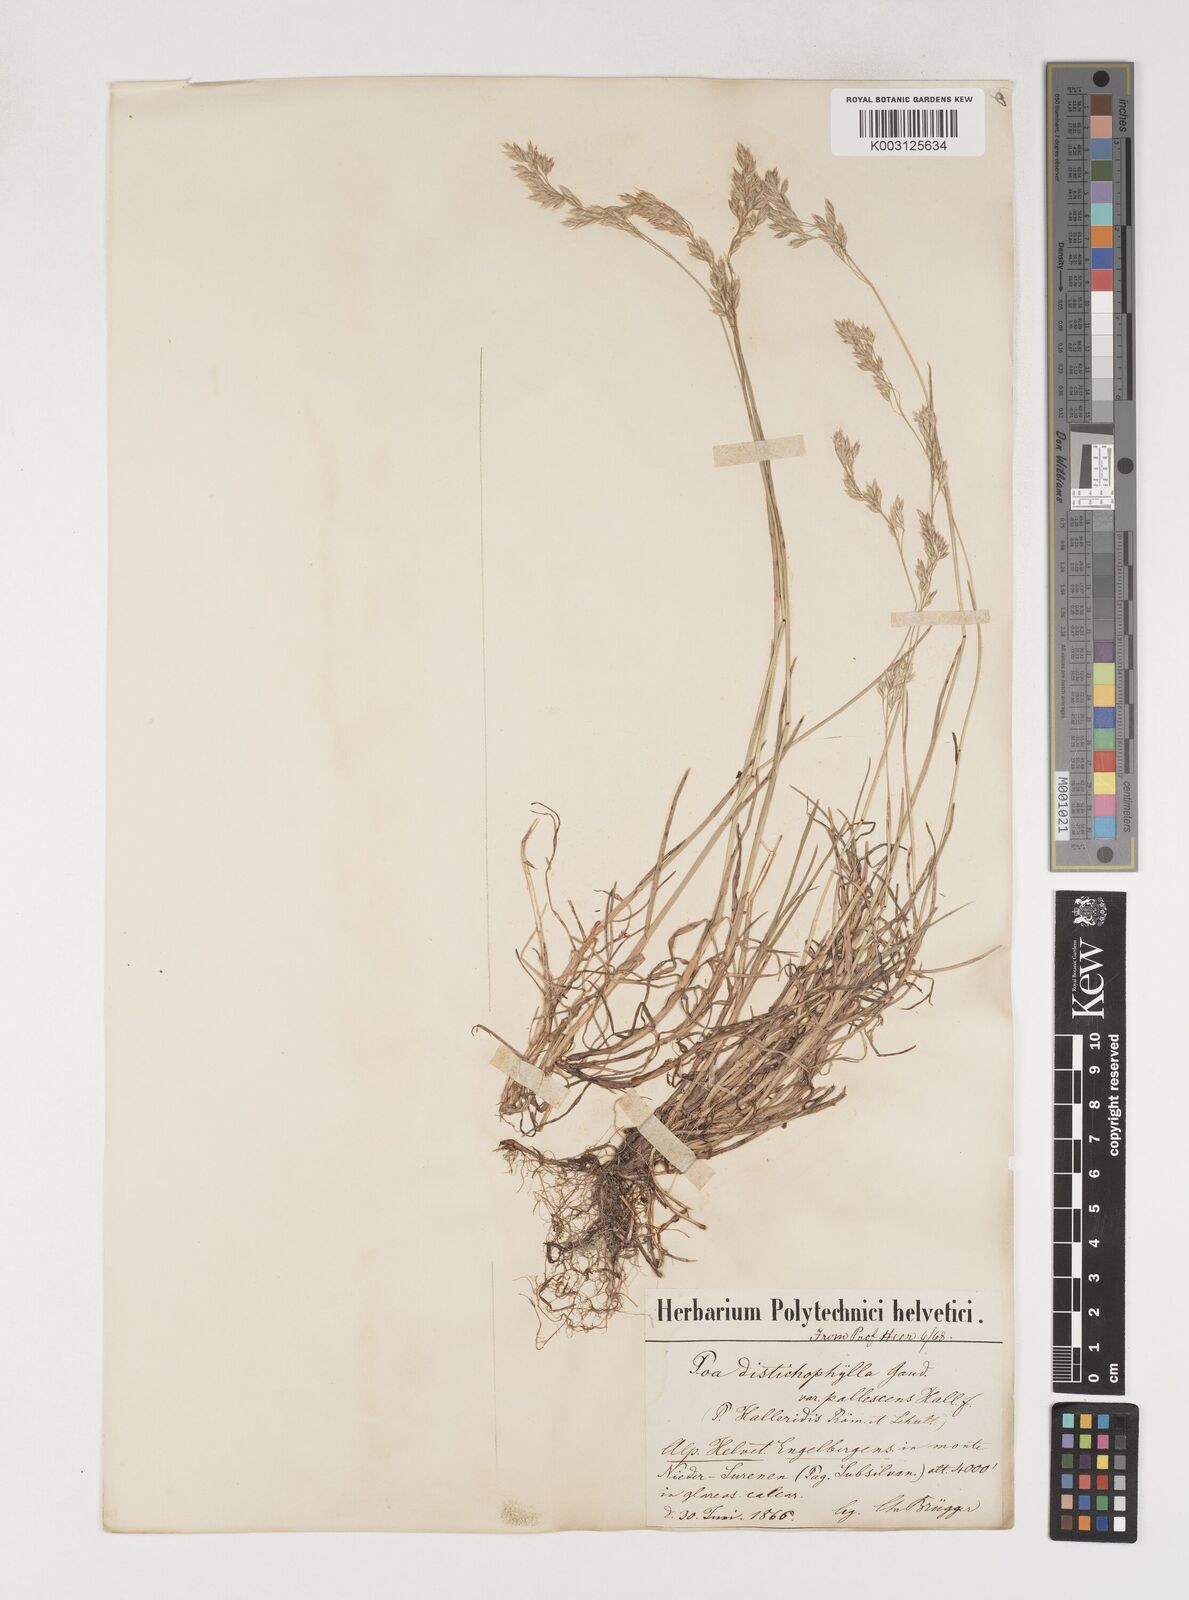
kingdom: Plantae
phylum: Tracheophyta
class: Liliopsida
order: Poales
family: Poaceae
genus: Poa
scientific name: Poa
